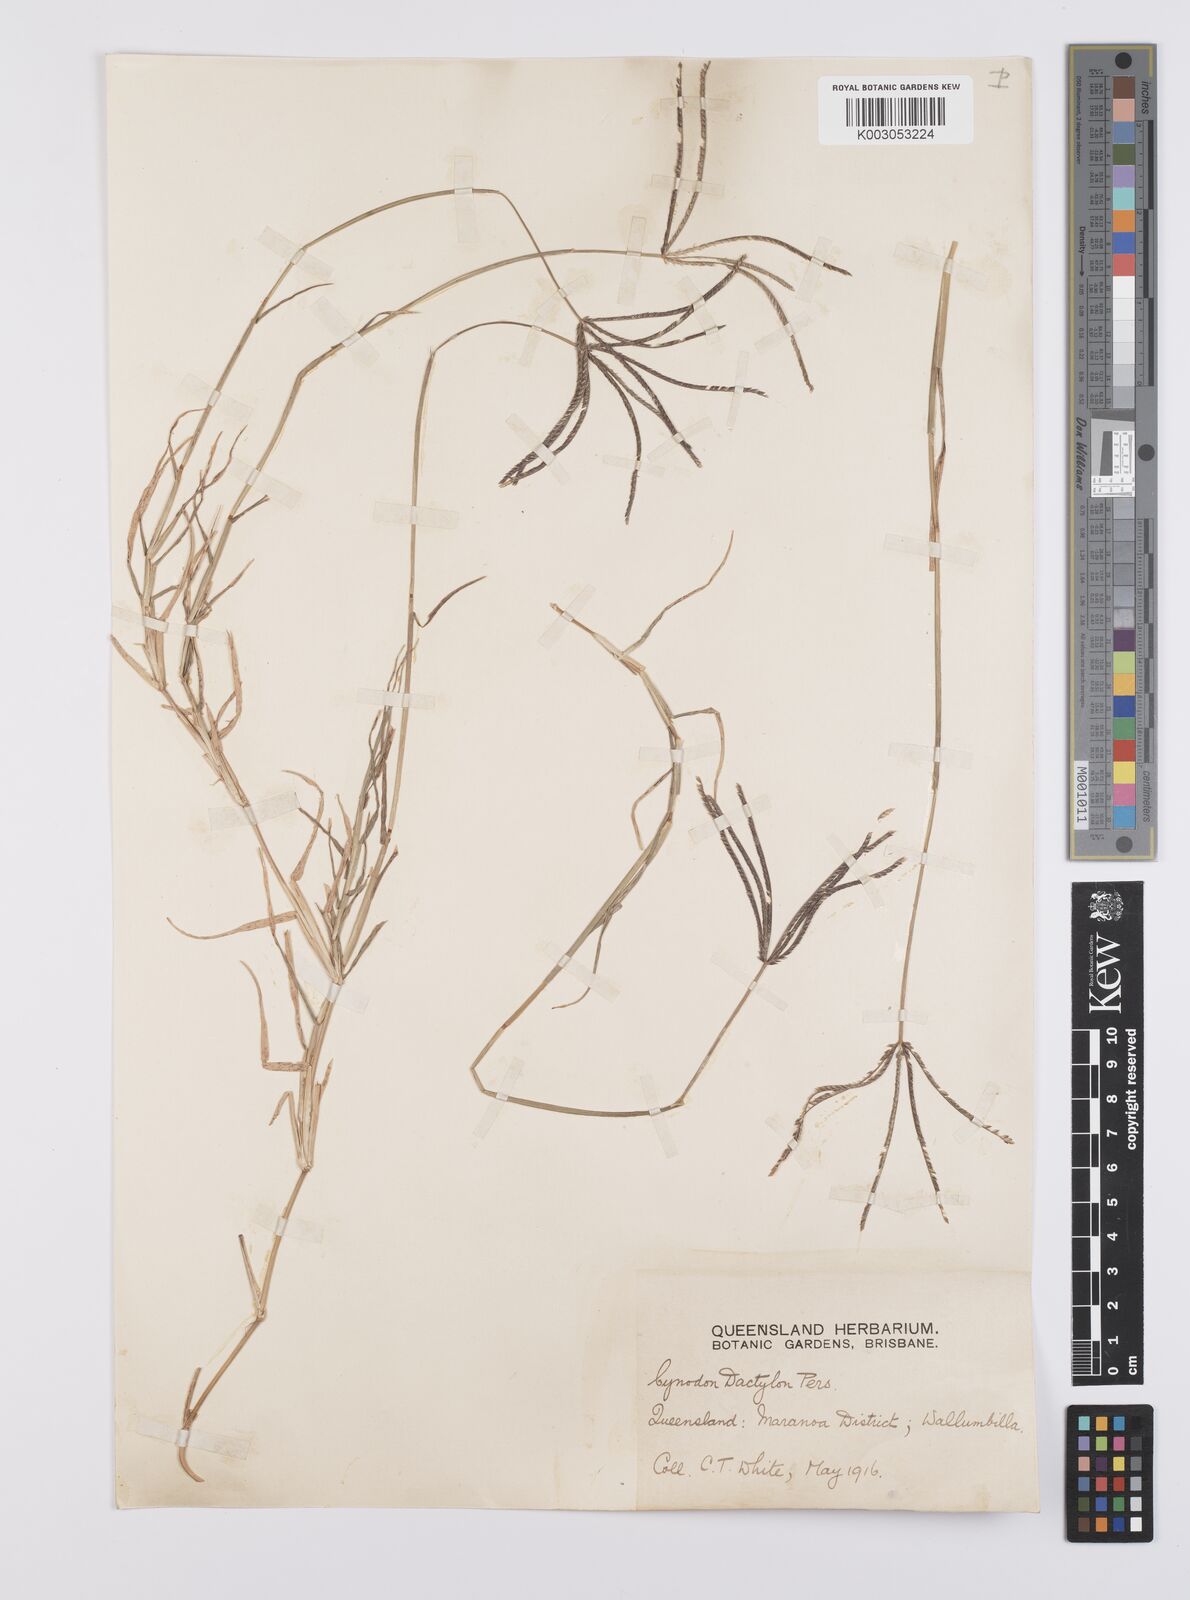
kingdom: Plantae
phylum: Tracheophyta
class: Liliopsida
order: Poales
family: Poaceae
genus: Cynodon
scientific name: Cynodon dactylon
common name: Bermuda grass
